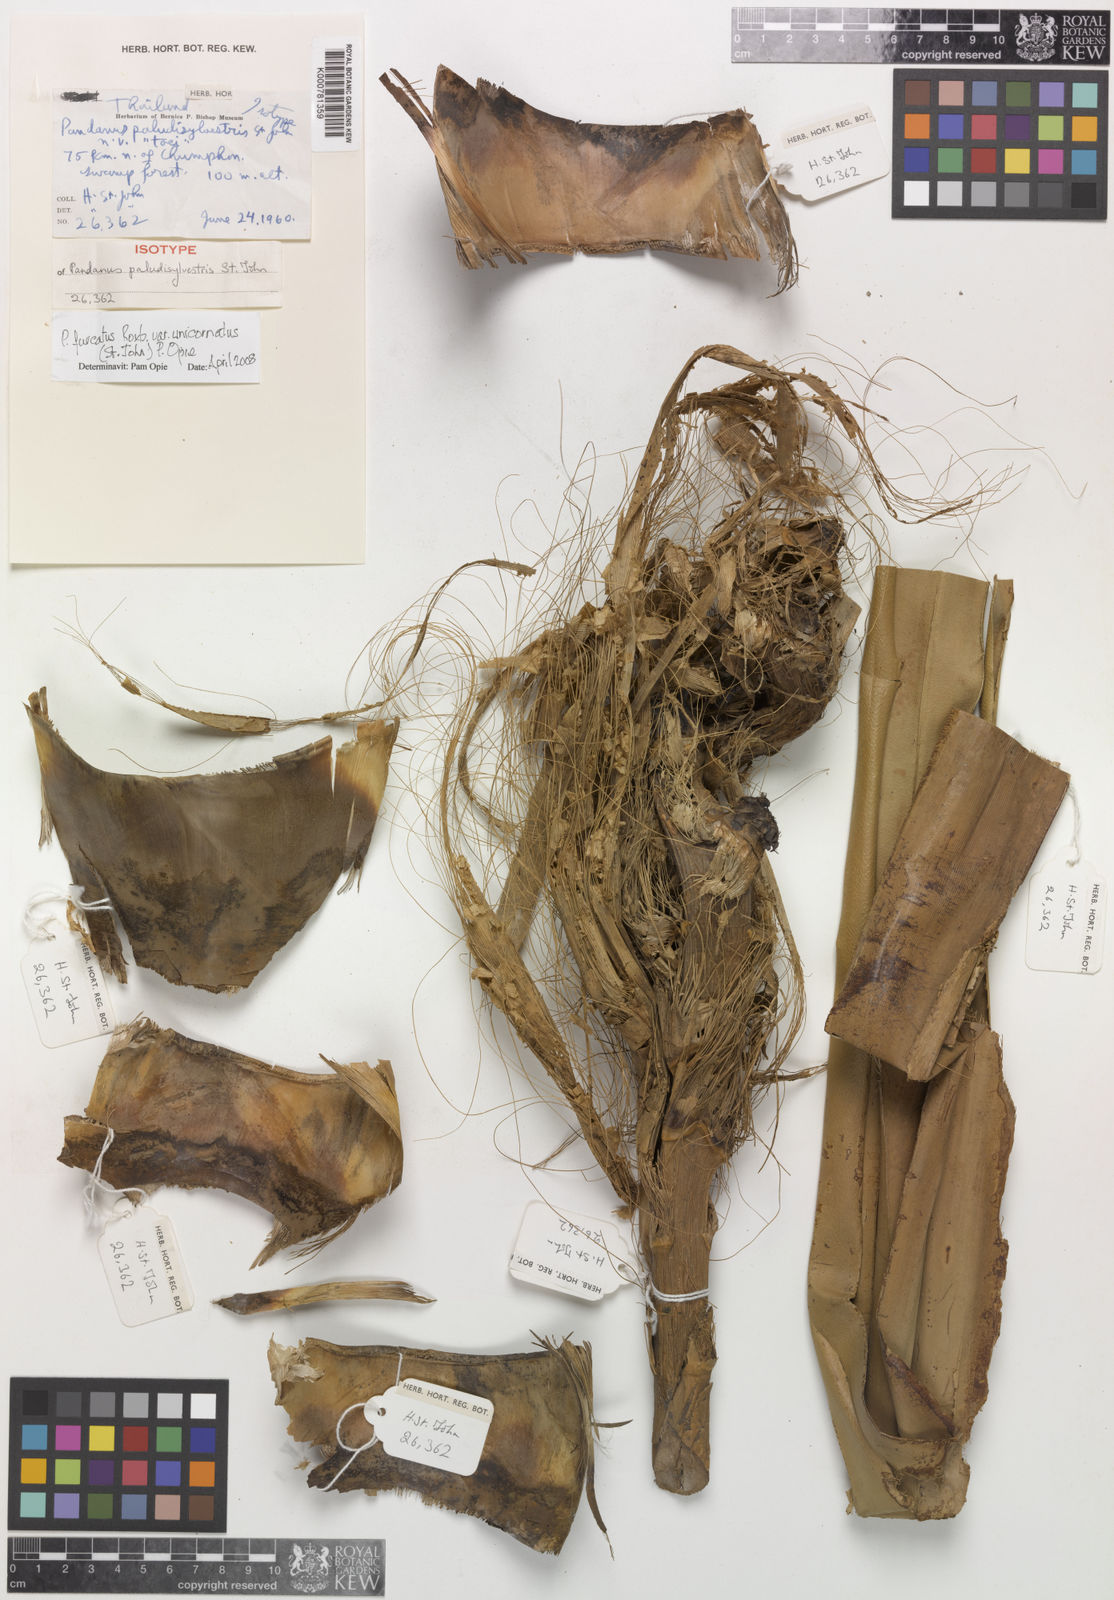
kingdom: Plantae
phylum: Tracheophyta
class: Liliopsida
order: Pandanales
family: Pandanaceae
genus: Pandanus
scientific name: Pandanus penangensis
